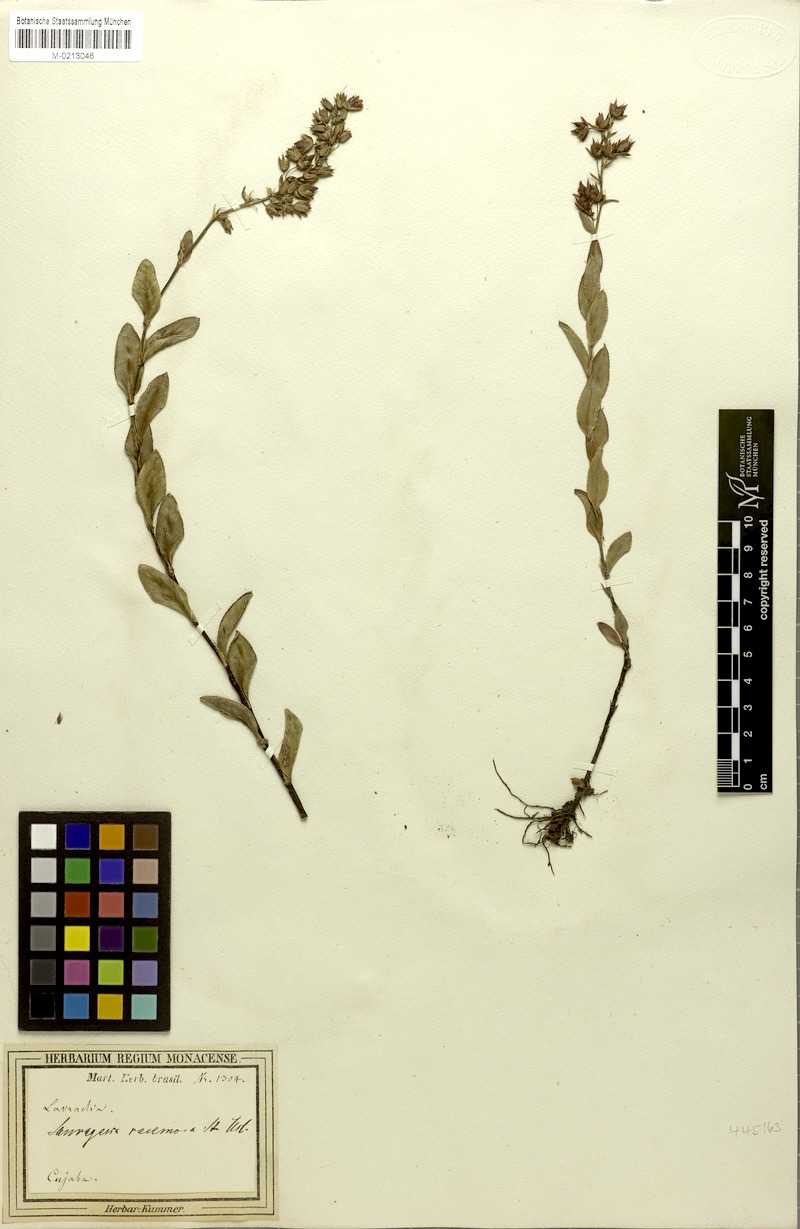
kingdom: Plantae
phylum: Tracheophyta
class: Magnoliopsida
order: Malpighiales
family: Ochnaceae
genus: Sauvagesia
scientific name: Sauvagesia racemosa
